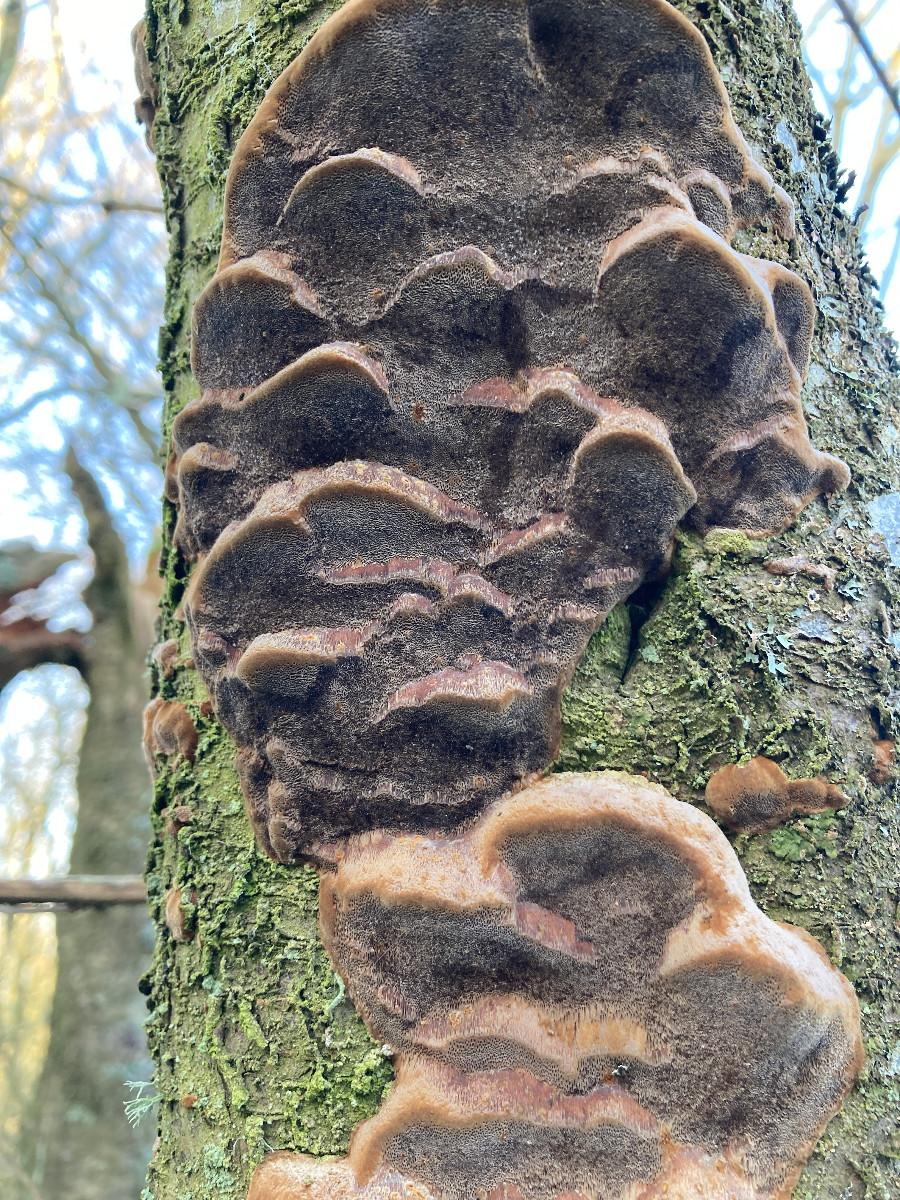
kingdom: Fungi
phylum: Basidiomycota
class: Agaricomycetes
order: Hymenochaetales
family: Hymenochaetaceae
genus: Phellinus
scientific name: Phellinus pomaceus
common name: blomme-ildporesvamp
